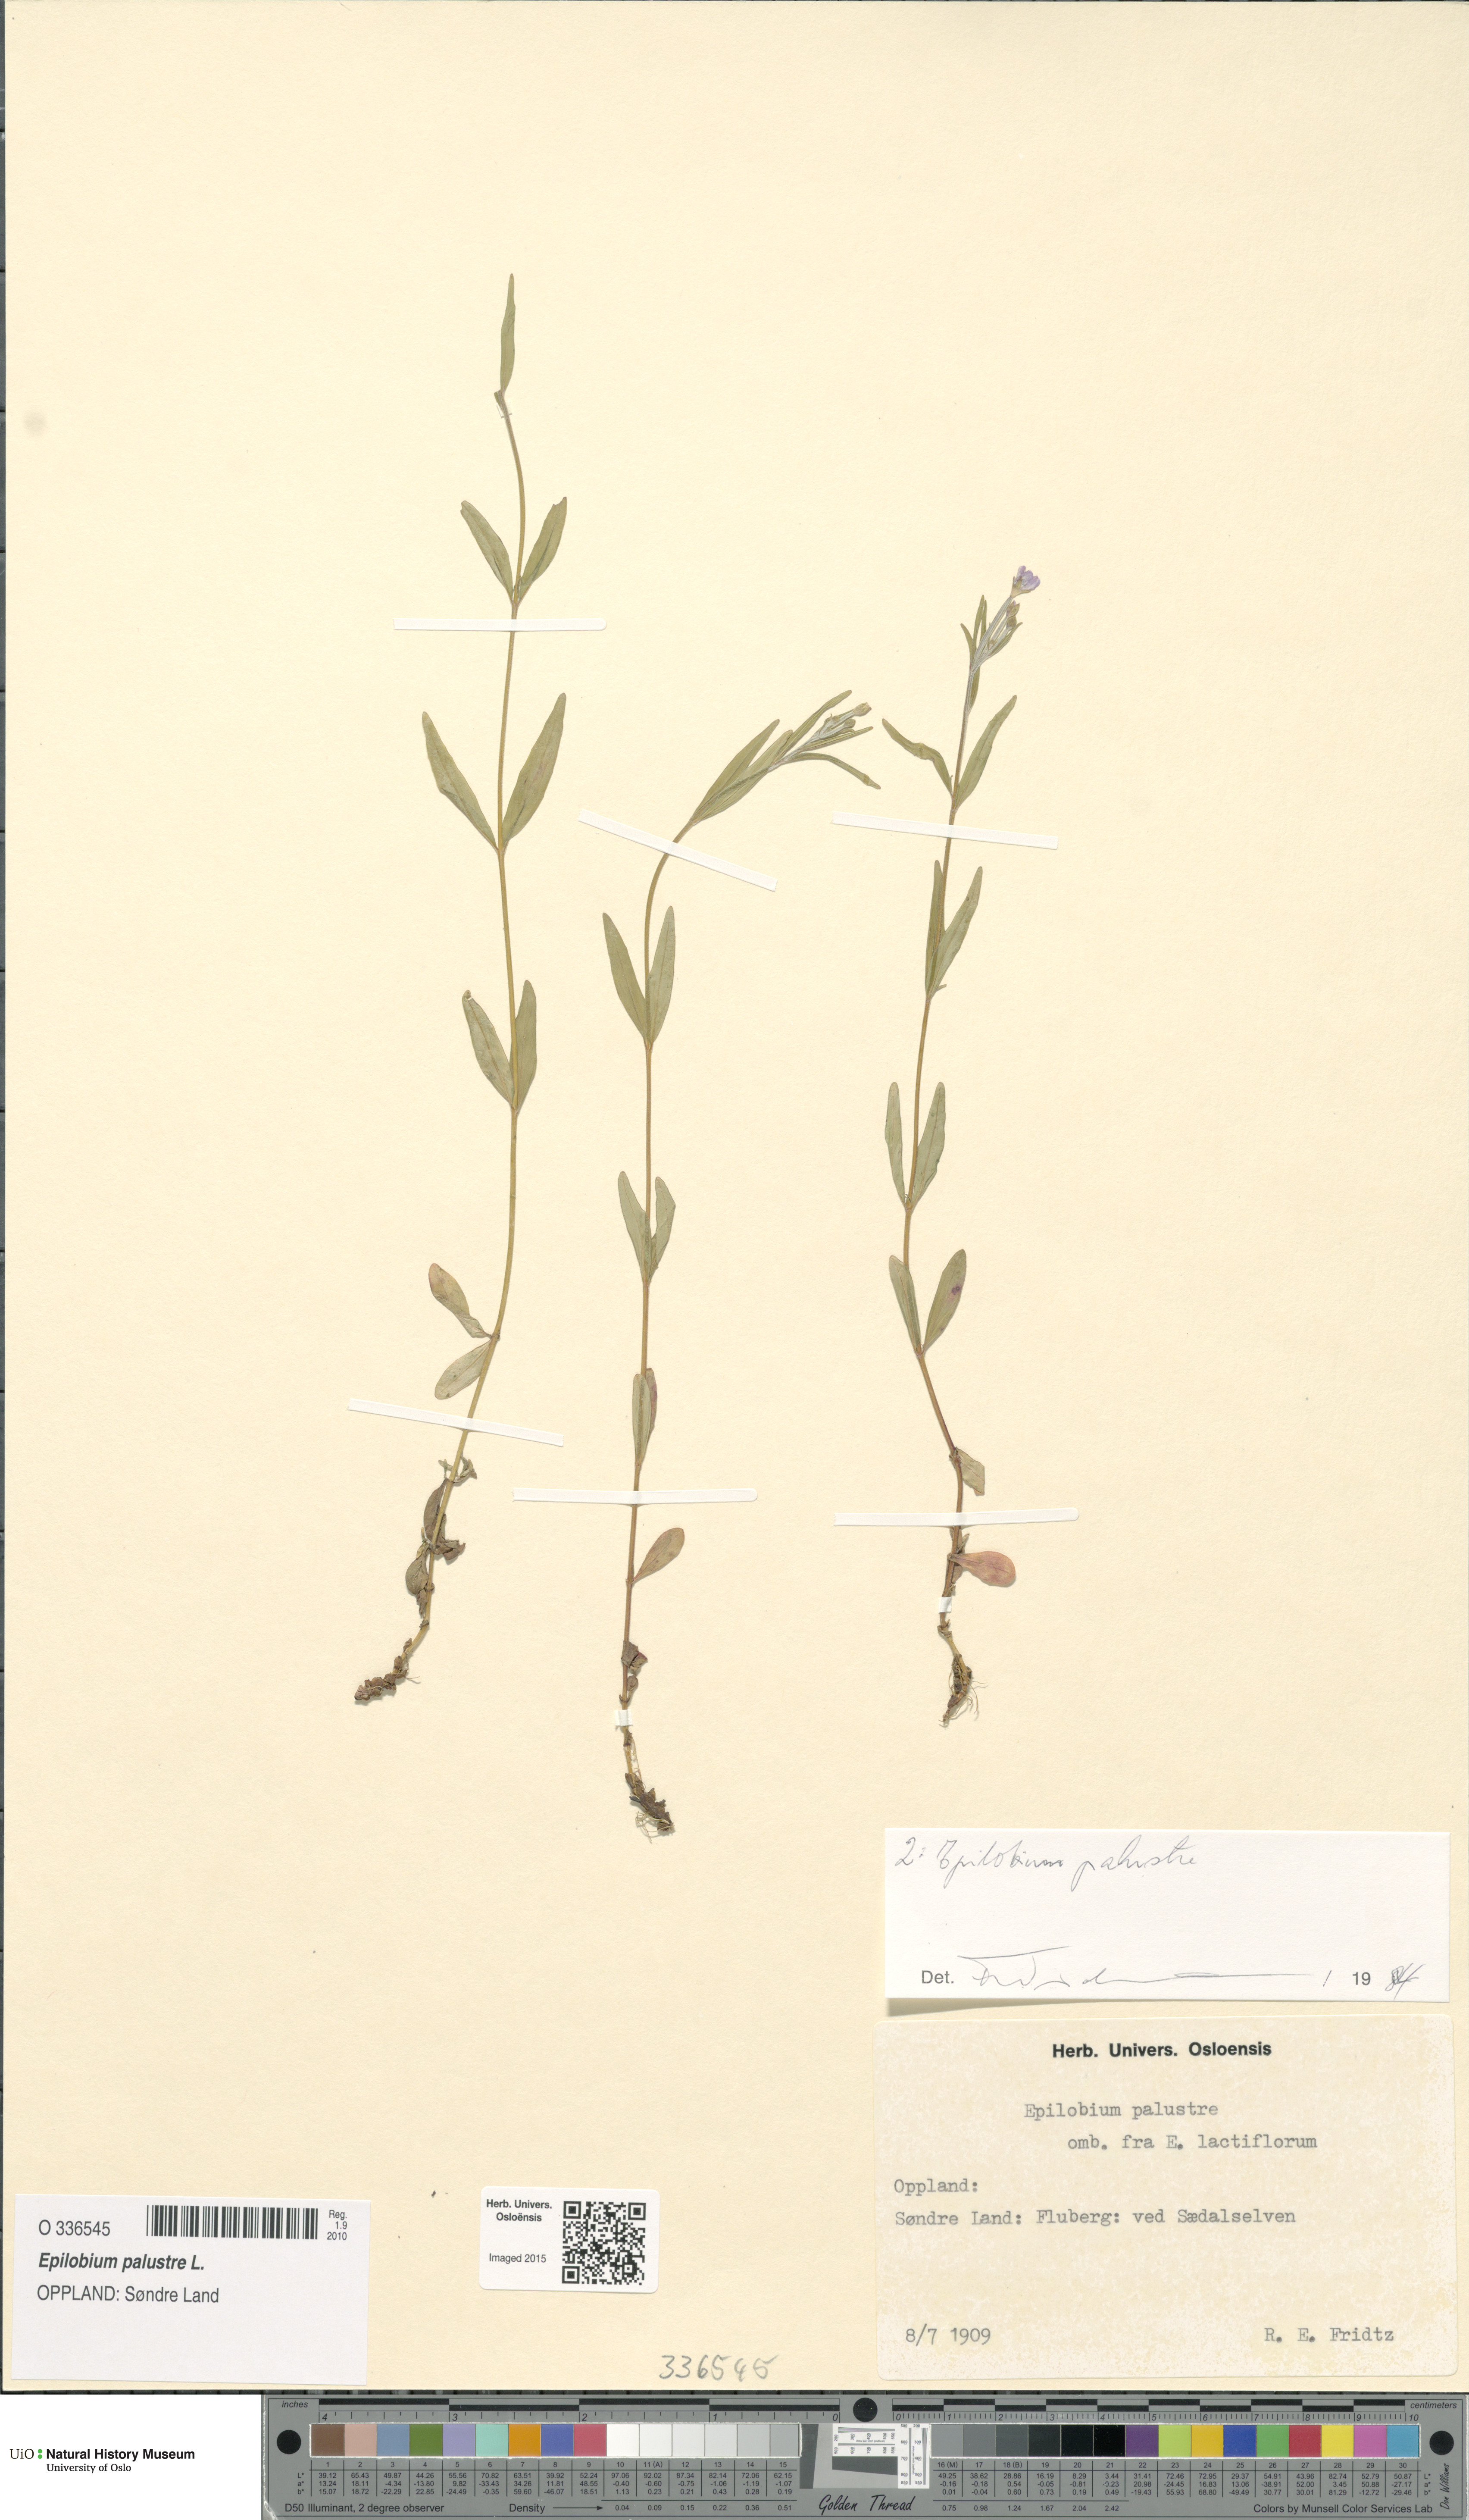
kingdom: Plantae
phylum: Tracheophyta
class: Magnoliopsida
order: Myrtales
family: Onagraceae
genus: Epilobium
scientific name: Epilobium palustre
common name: Marsh willowherb
